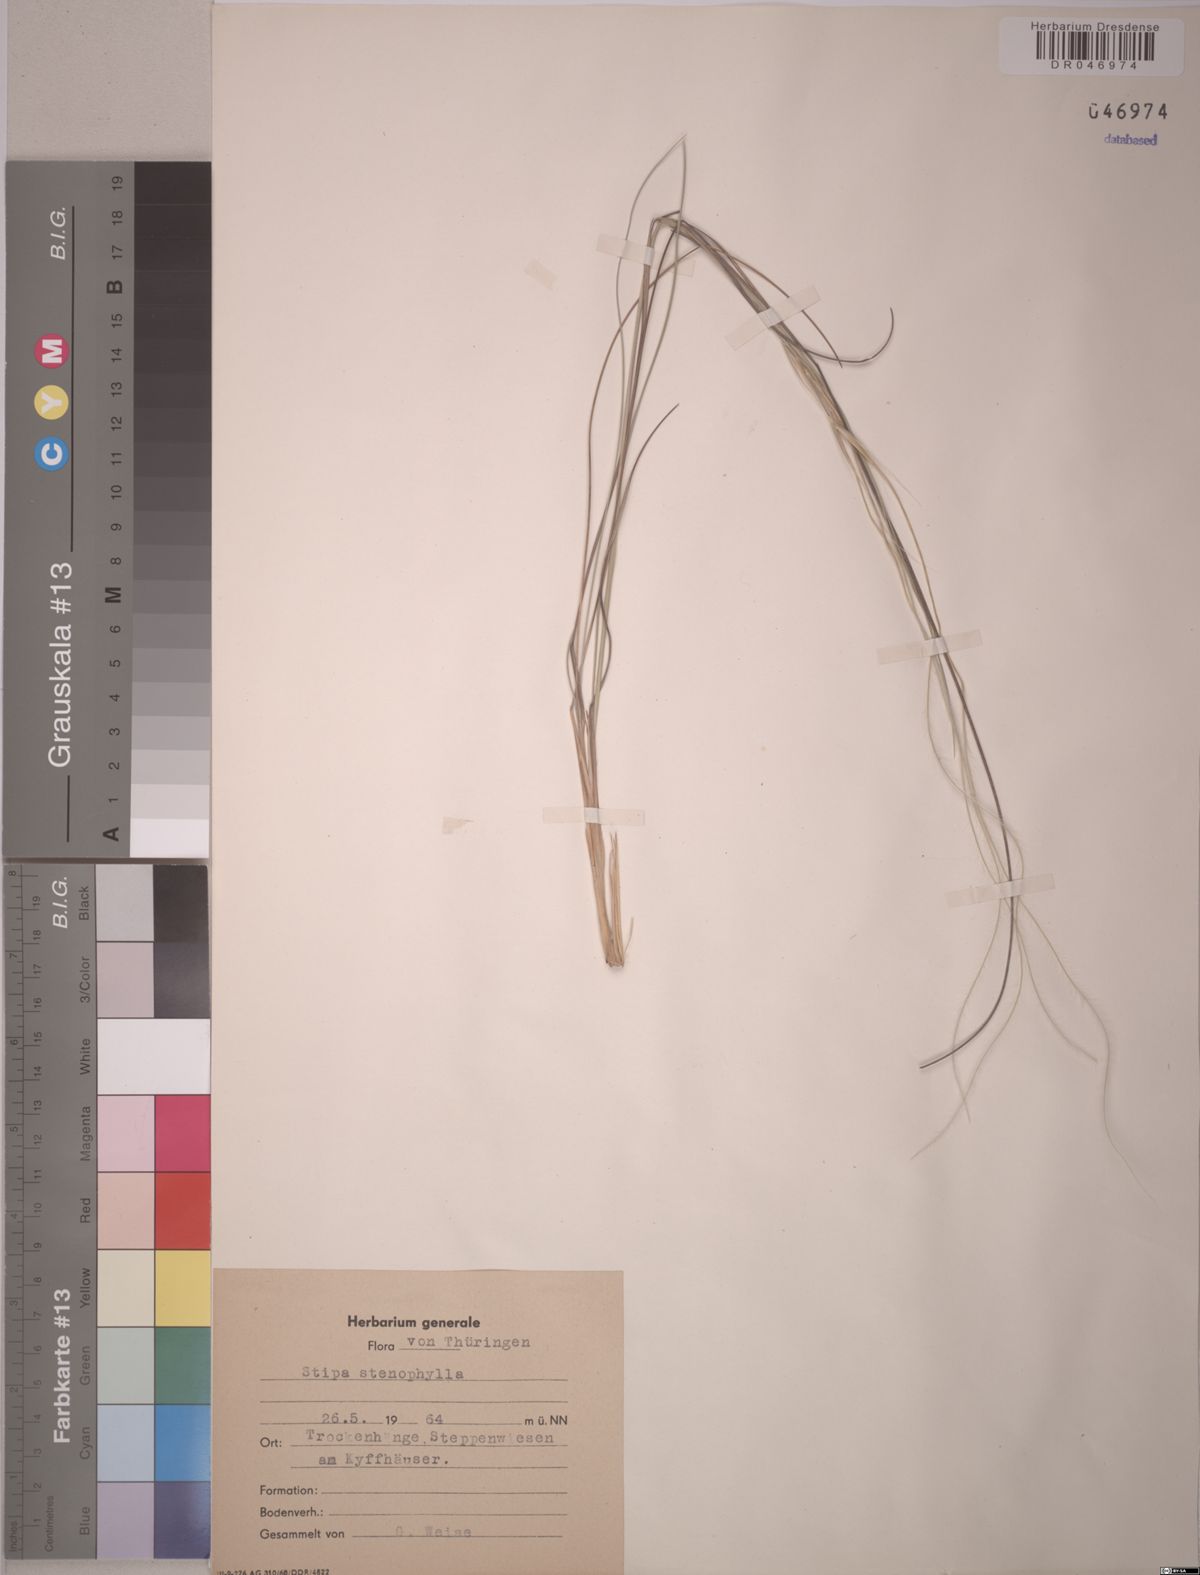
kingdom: Plantae
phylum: Tracheophyta
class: Liliopsida
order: Poales
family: Poaceae
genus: Stipa
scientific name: Stipa tirsa
